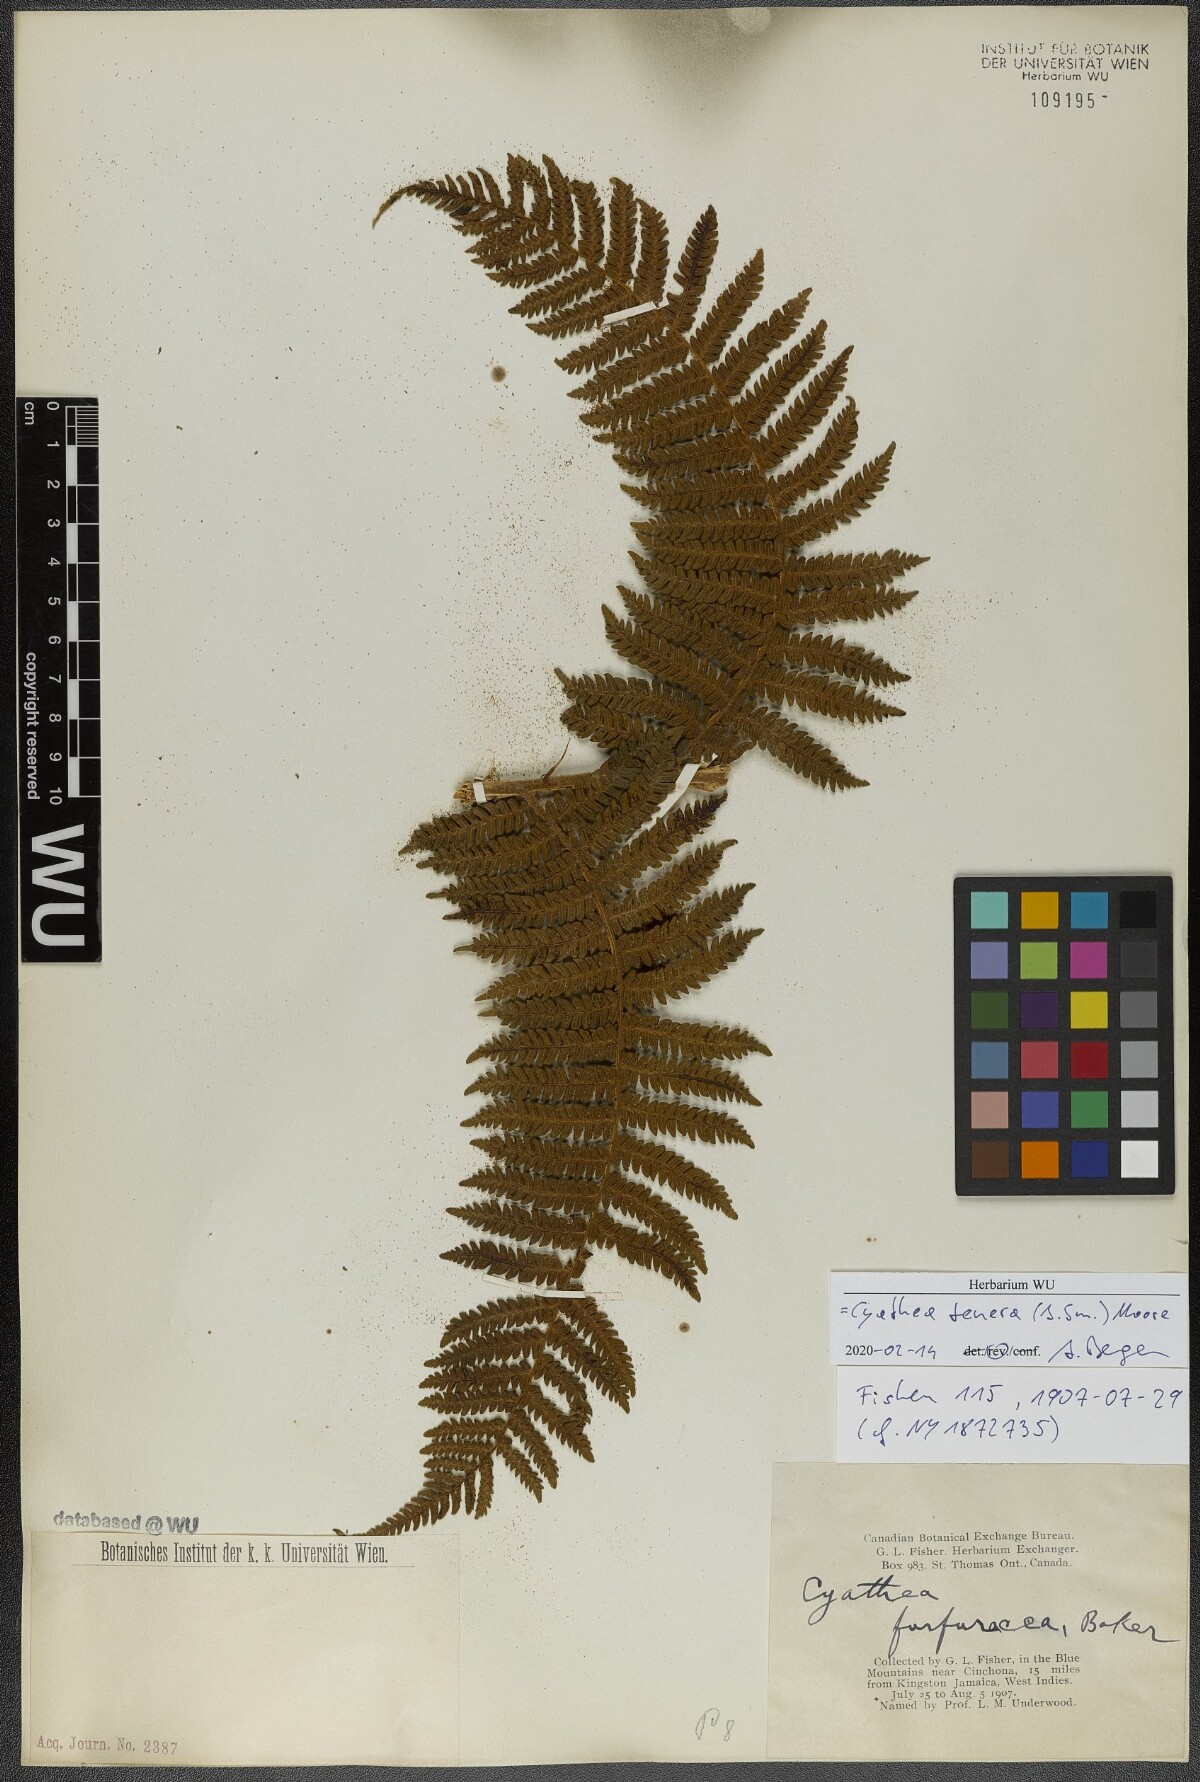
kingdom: Plantae
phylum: Tracheophyta
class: Polypodiopsida
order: Cyatheales
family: Cyatheaceae
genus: Cyathea
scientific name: Cyathea tenera
